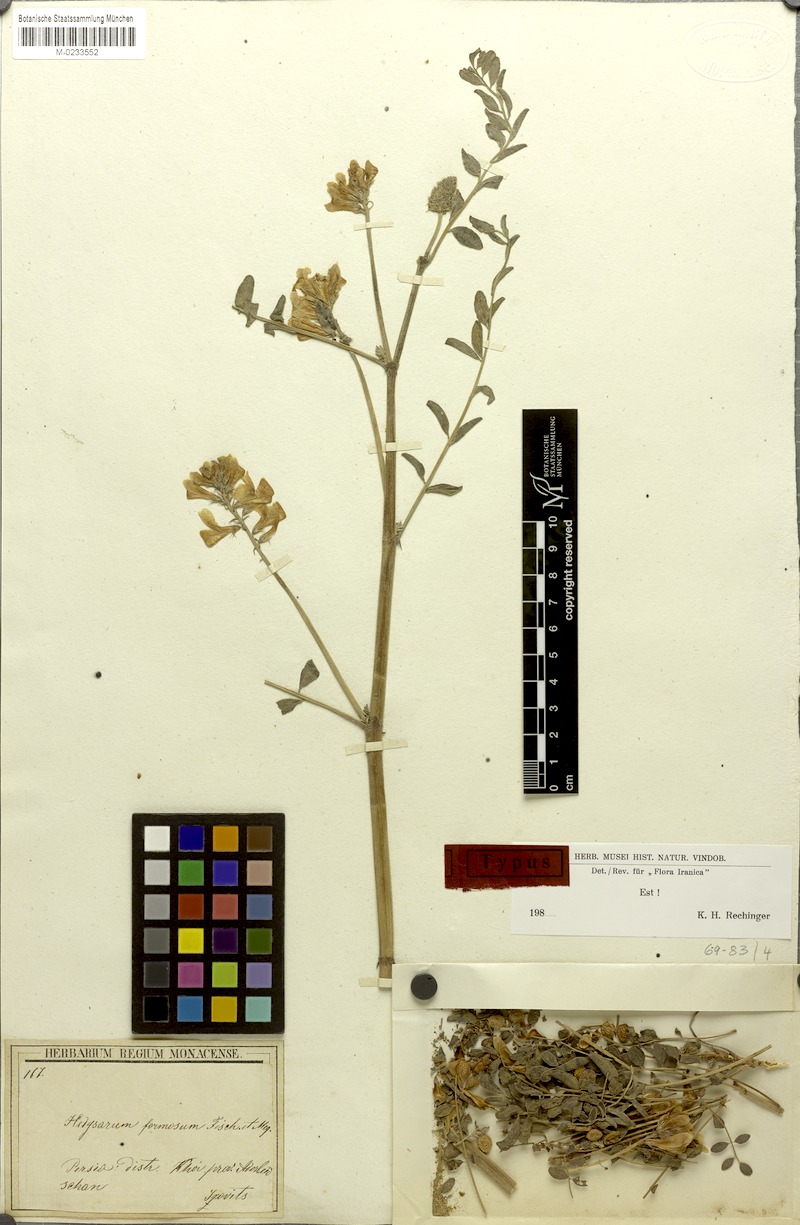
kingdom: Plantae
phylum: Tracheophyta
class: Magnoliopsida
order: Fabales
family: Fabaceae
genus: Hedysarum
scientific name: Hedysarum formosum
